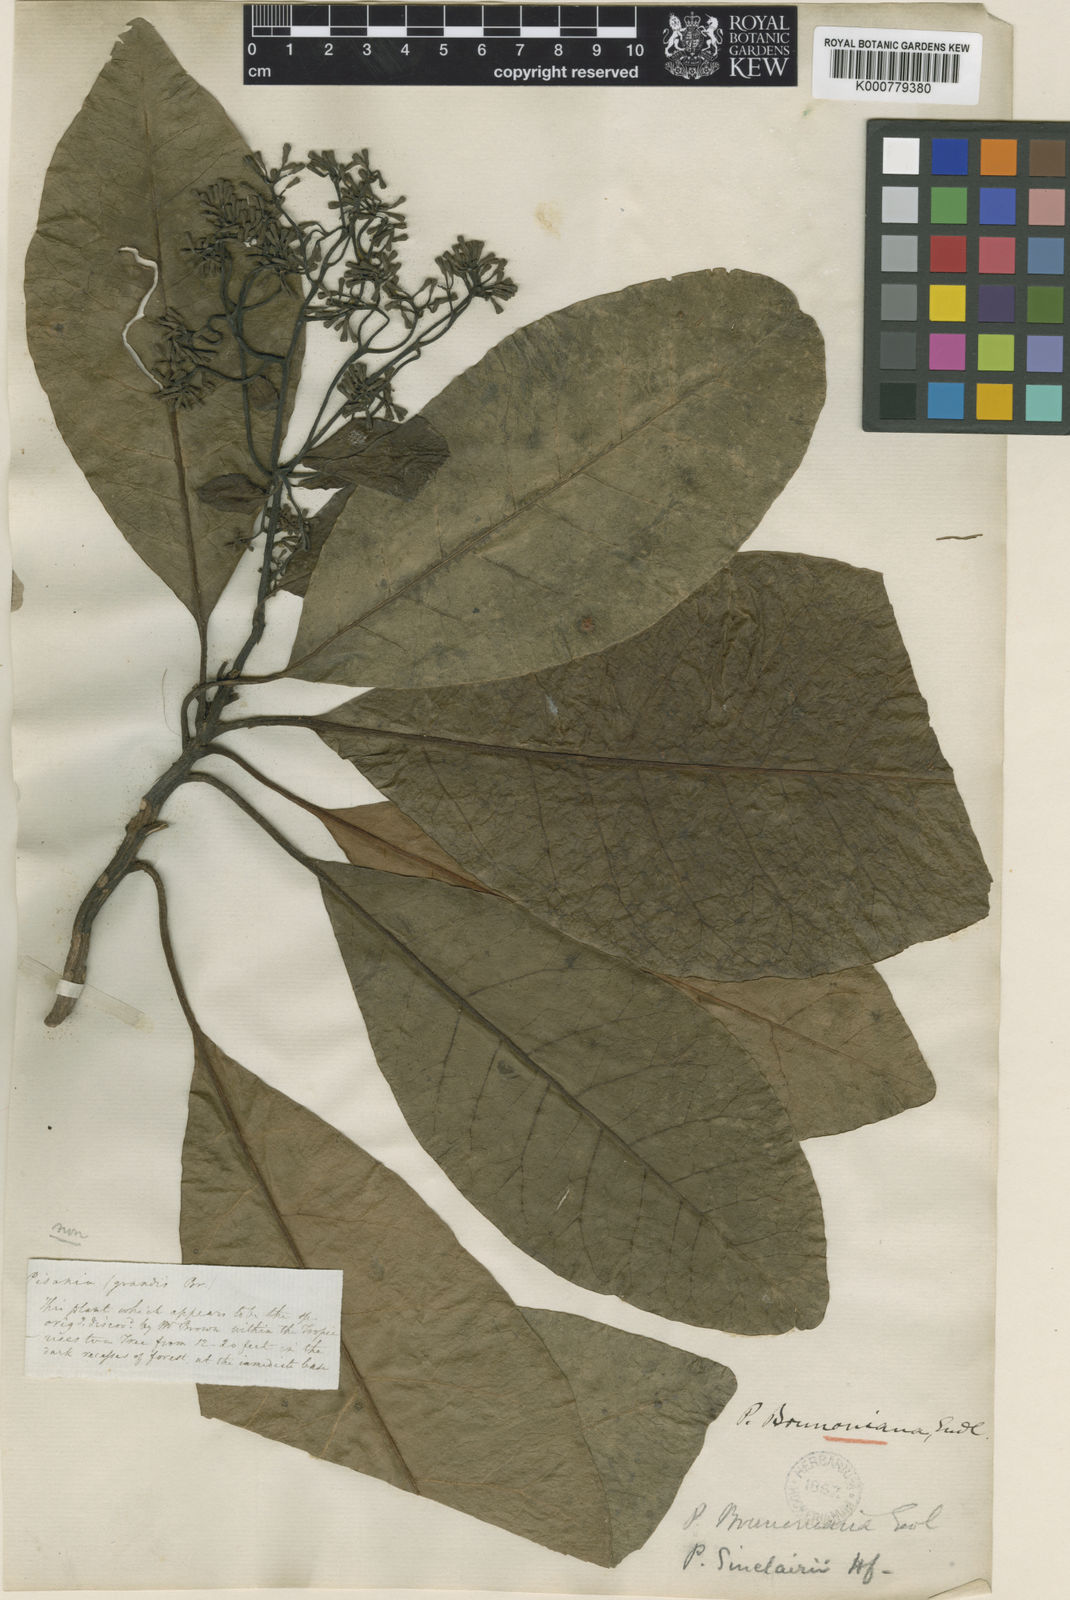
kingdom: Plantae
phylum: Tracheophyta
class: Magnoliopsida
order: Caryophyllales
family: Nyctaginaceae
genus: Ceodes
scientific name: Ceodes brunoniana
